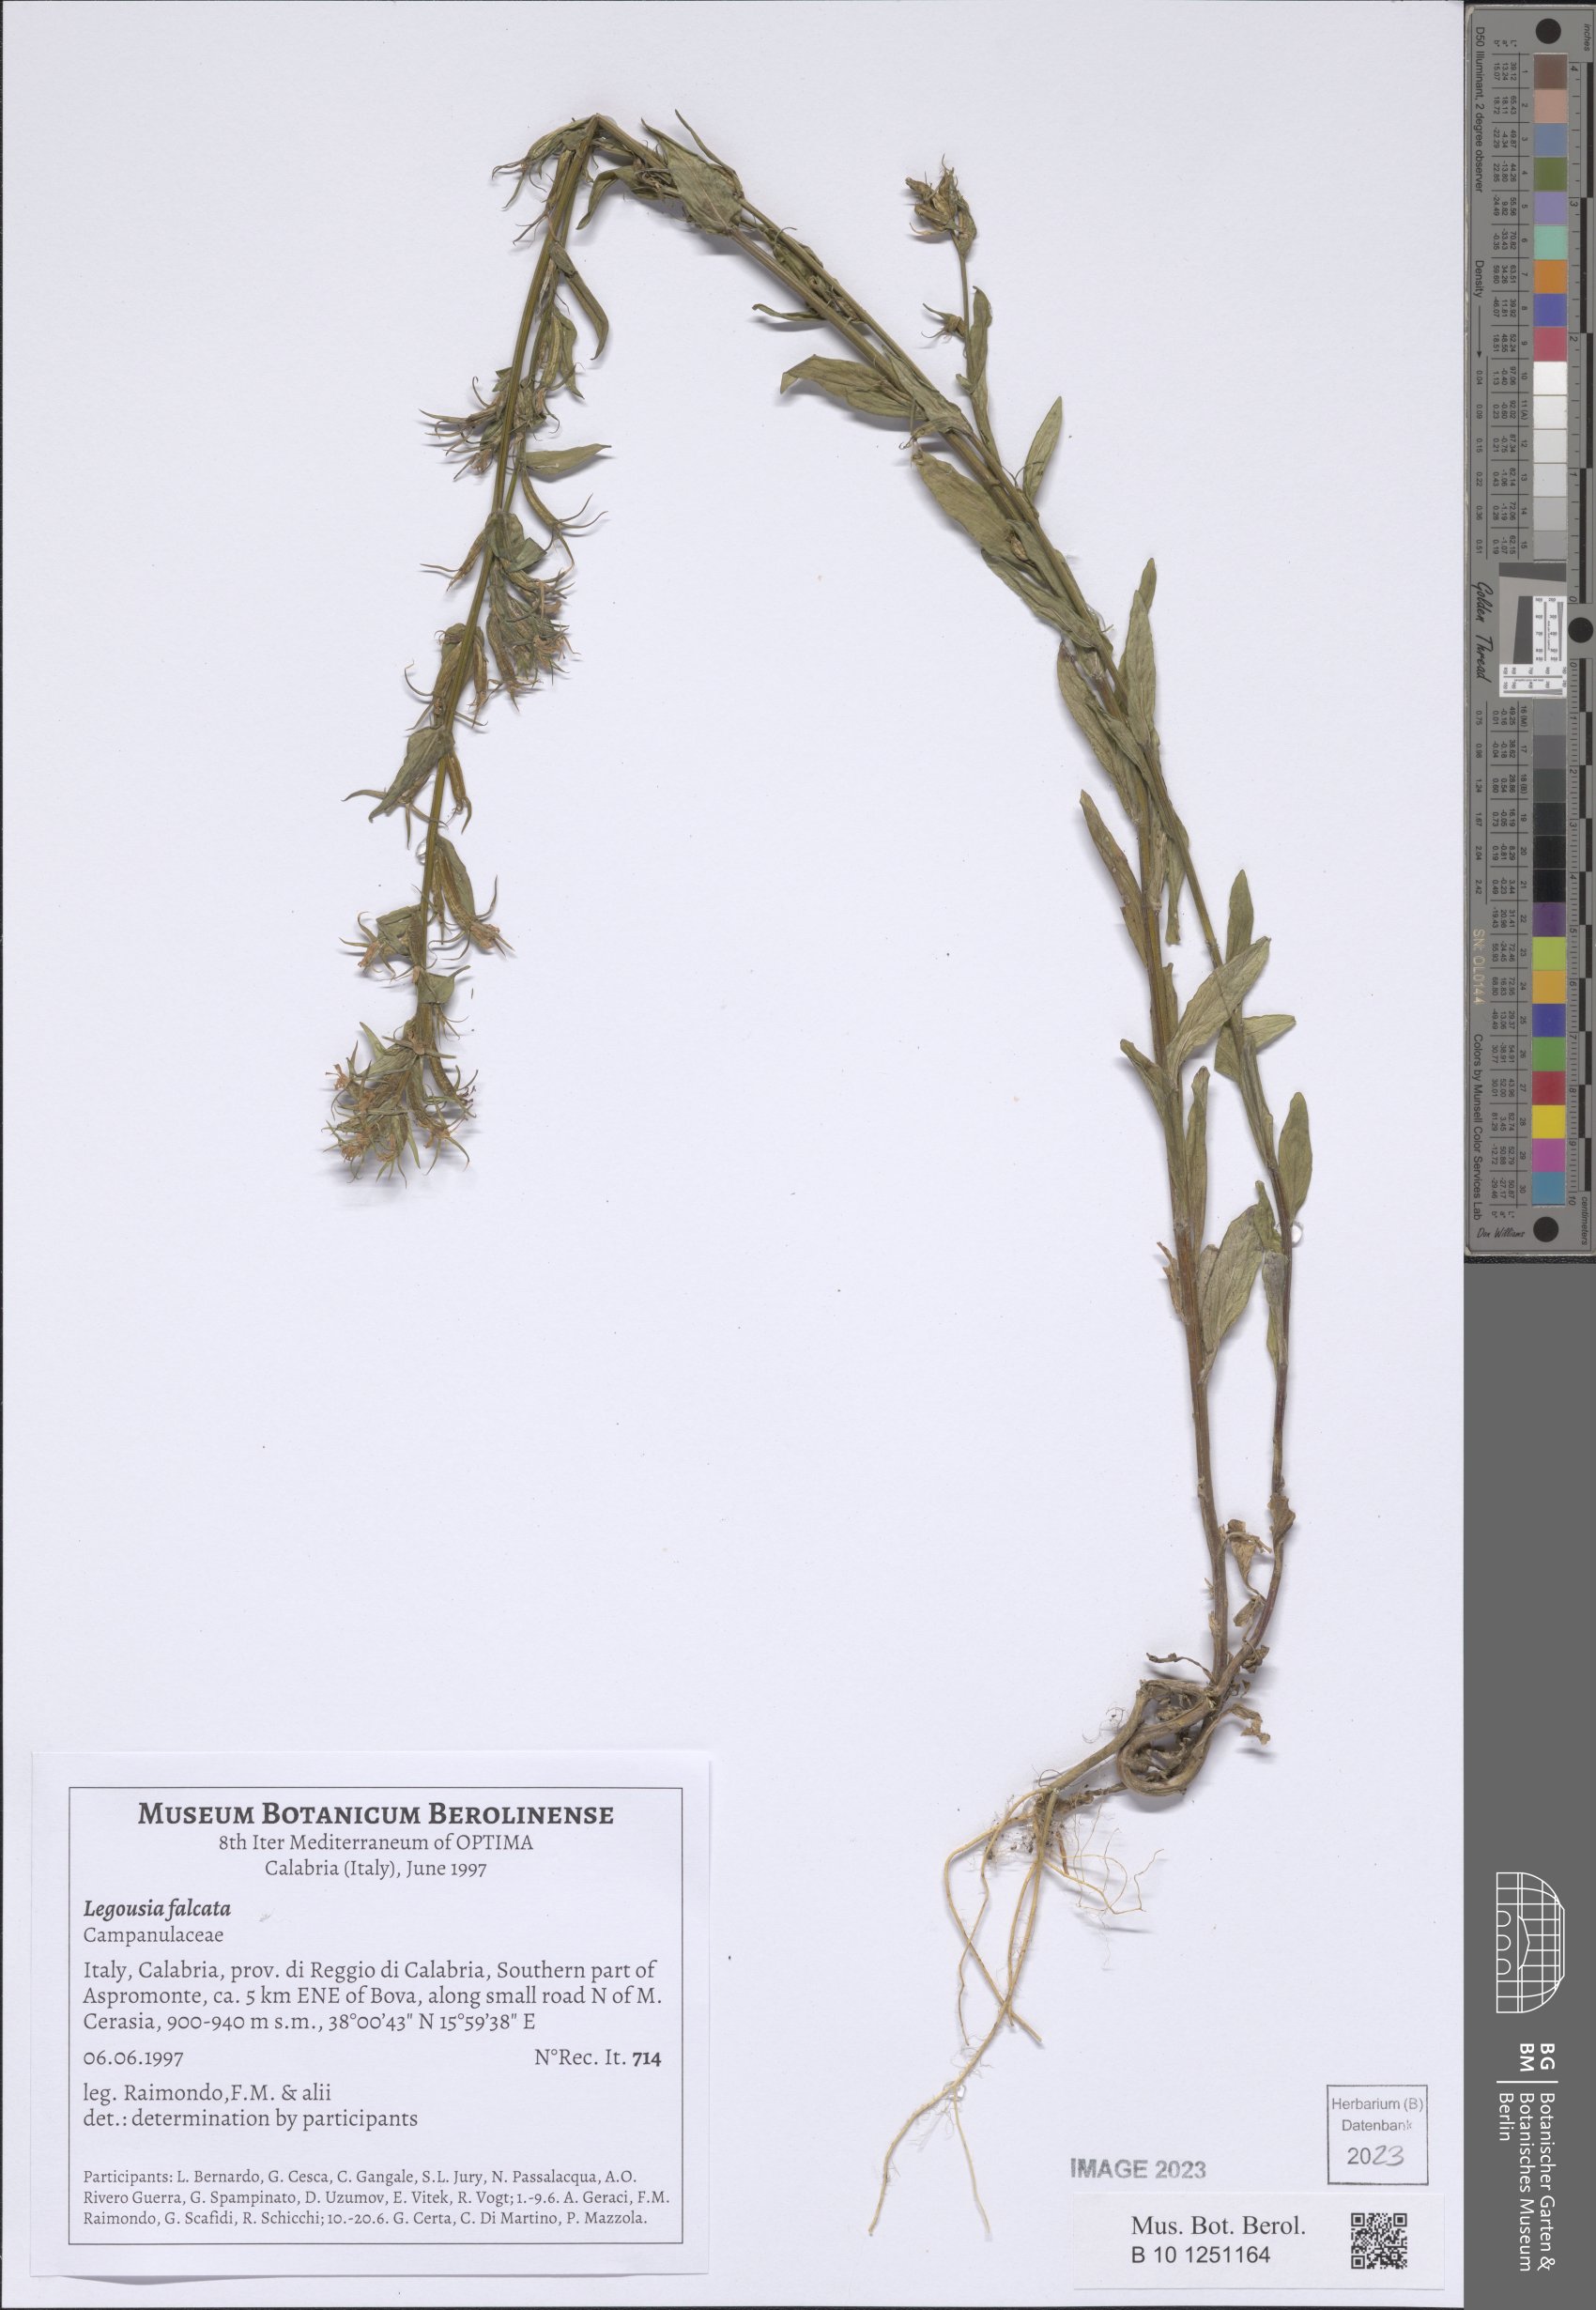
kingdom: Plantae
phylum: Tracheophyta
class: Magnoliopsida
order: Asterales
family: Campanulaceae
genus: Legousia
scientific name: Legousia falcata
